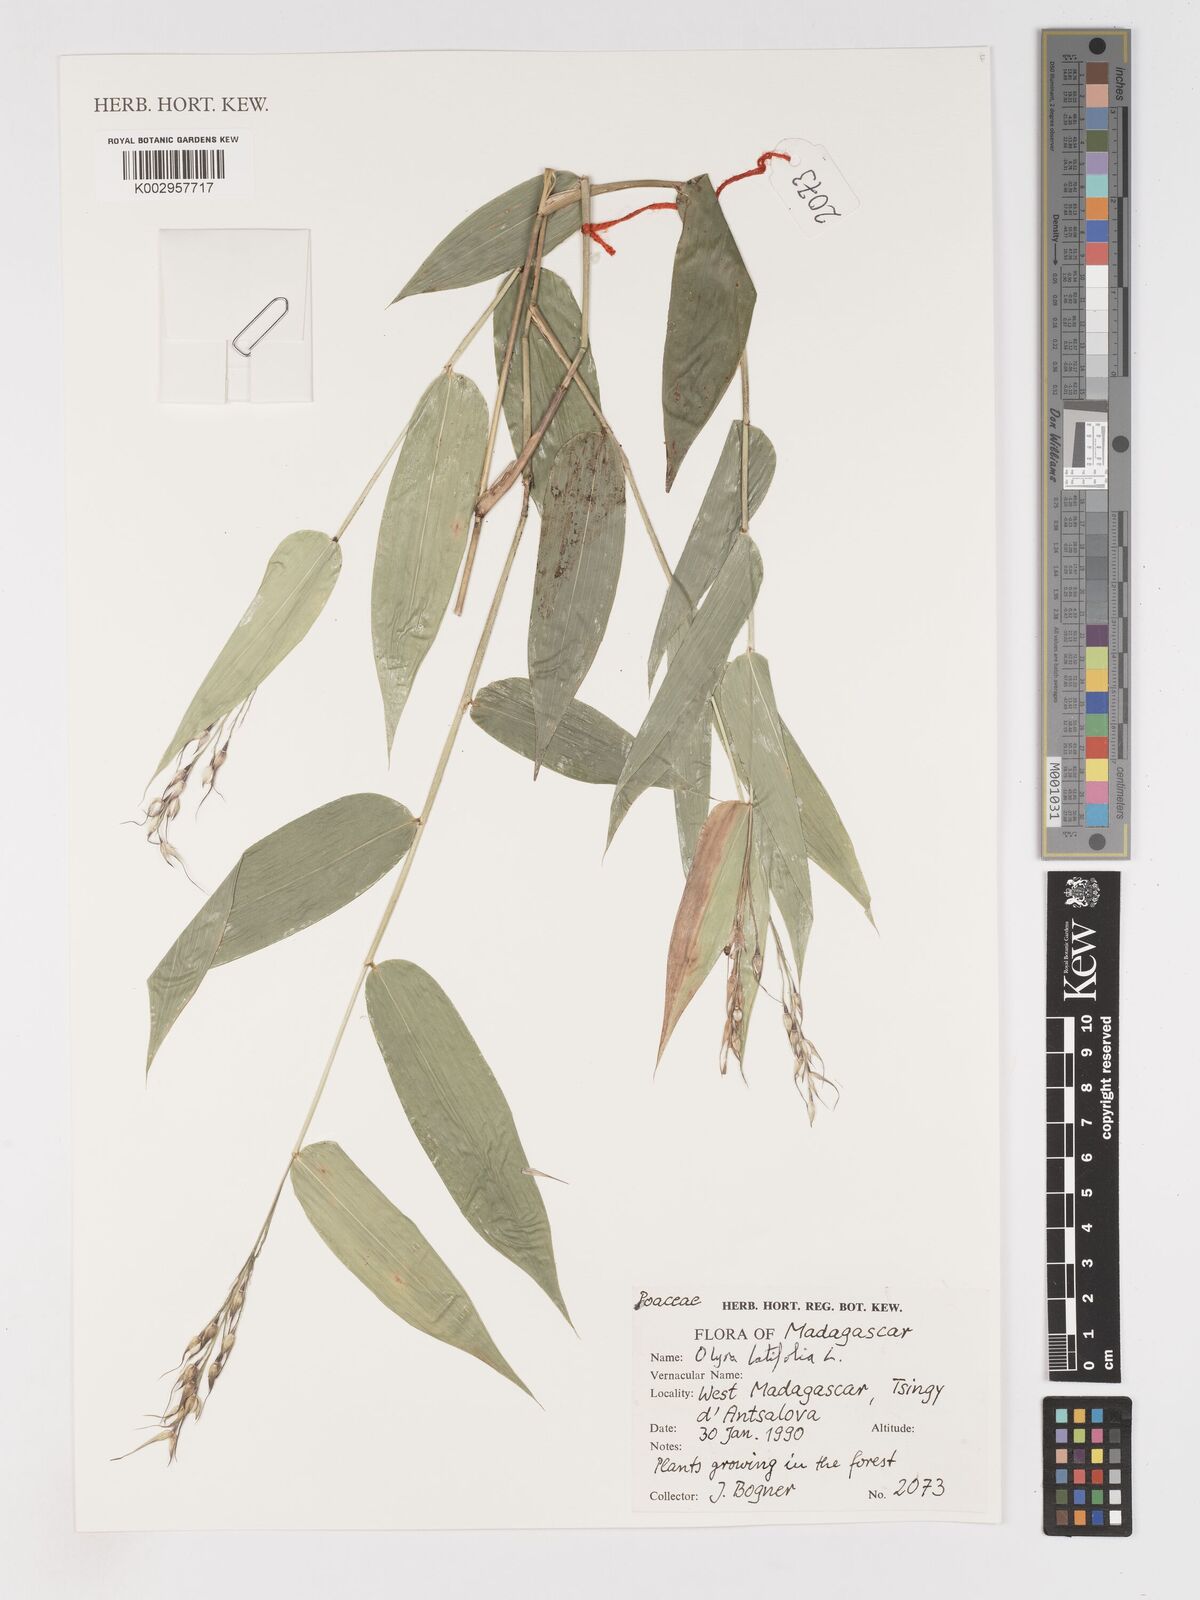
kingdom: Plantae
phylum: Tracheophyta
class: Liliopsida
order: Poales
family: Poaceae
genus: Olyra
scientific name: Olyra latifolia
